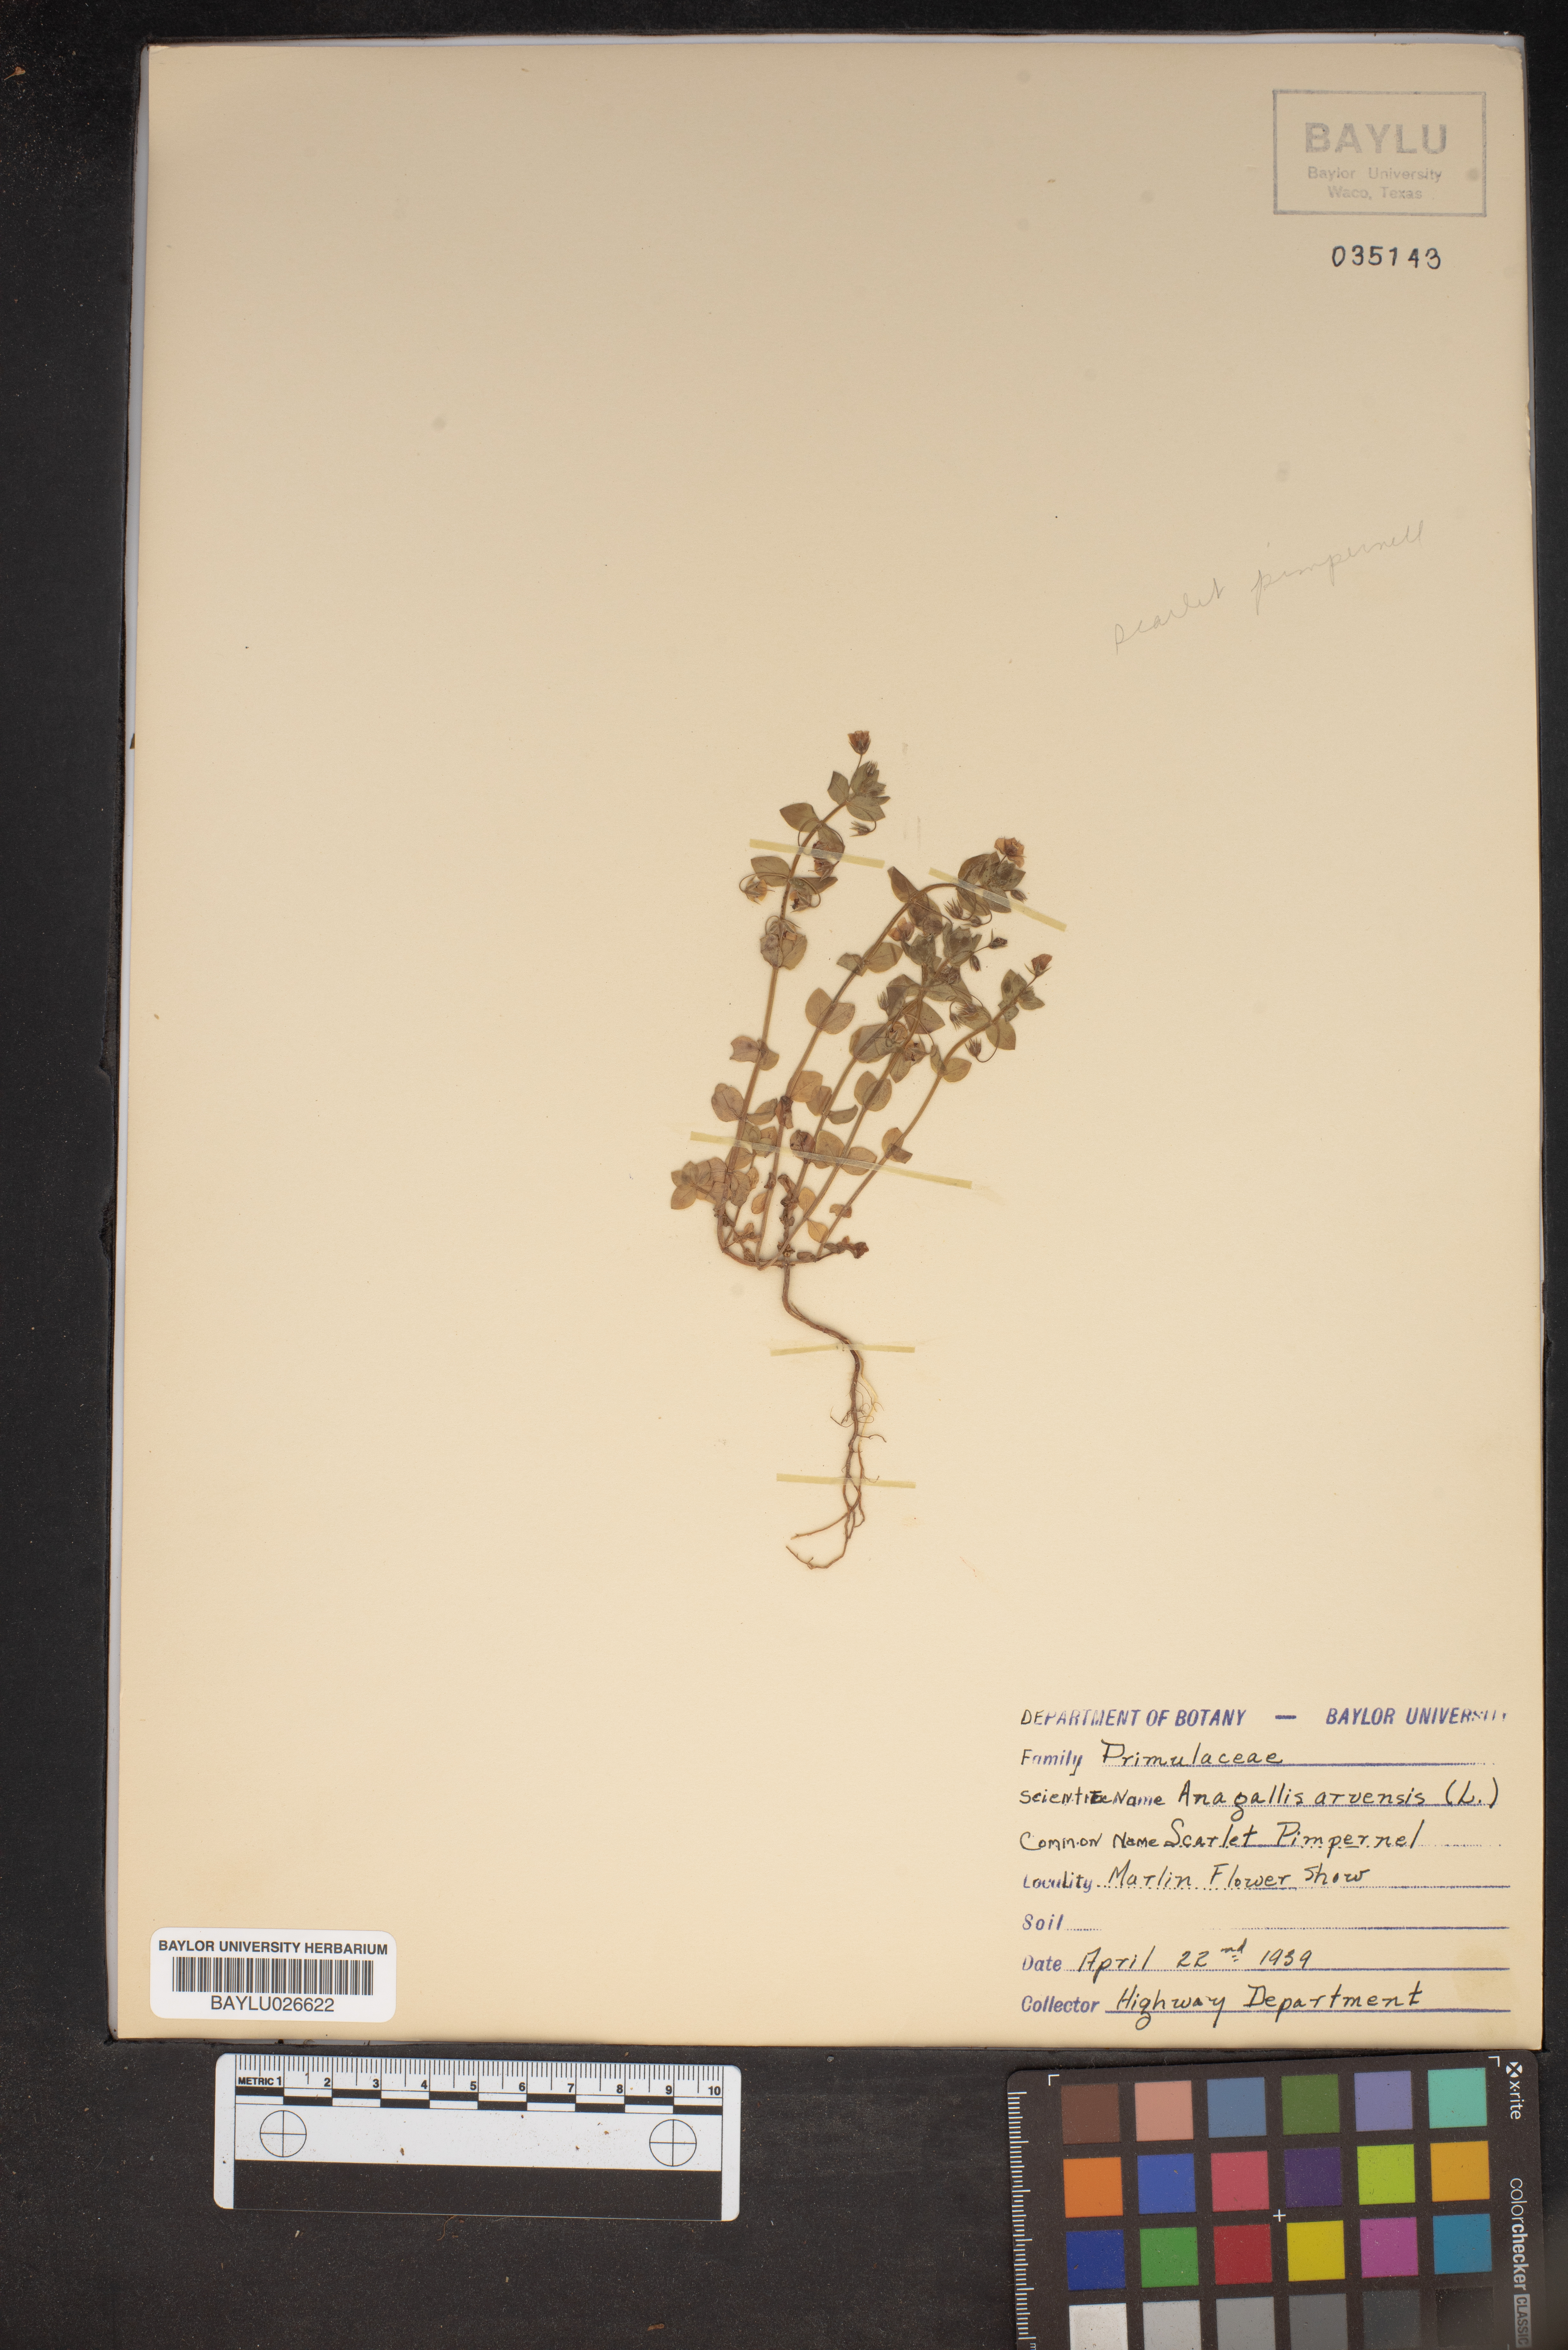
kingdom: Plantae
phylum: Tracheophyta
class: Magnoliopsida
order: Ericales
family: Primulaceae
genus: Lysimachia
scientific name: Lysimachia arvensis
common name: Scarlet pimpernel
